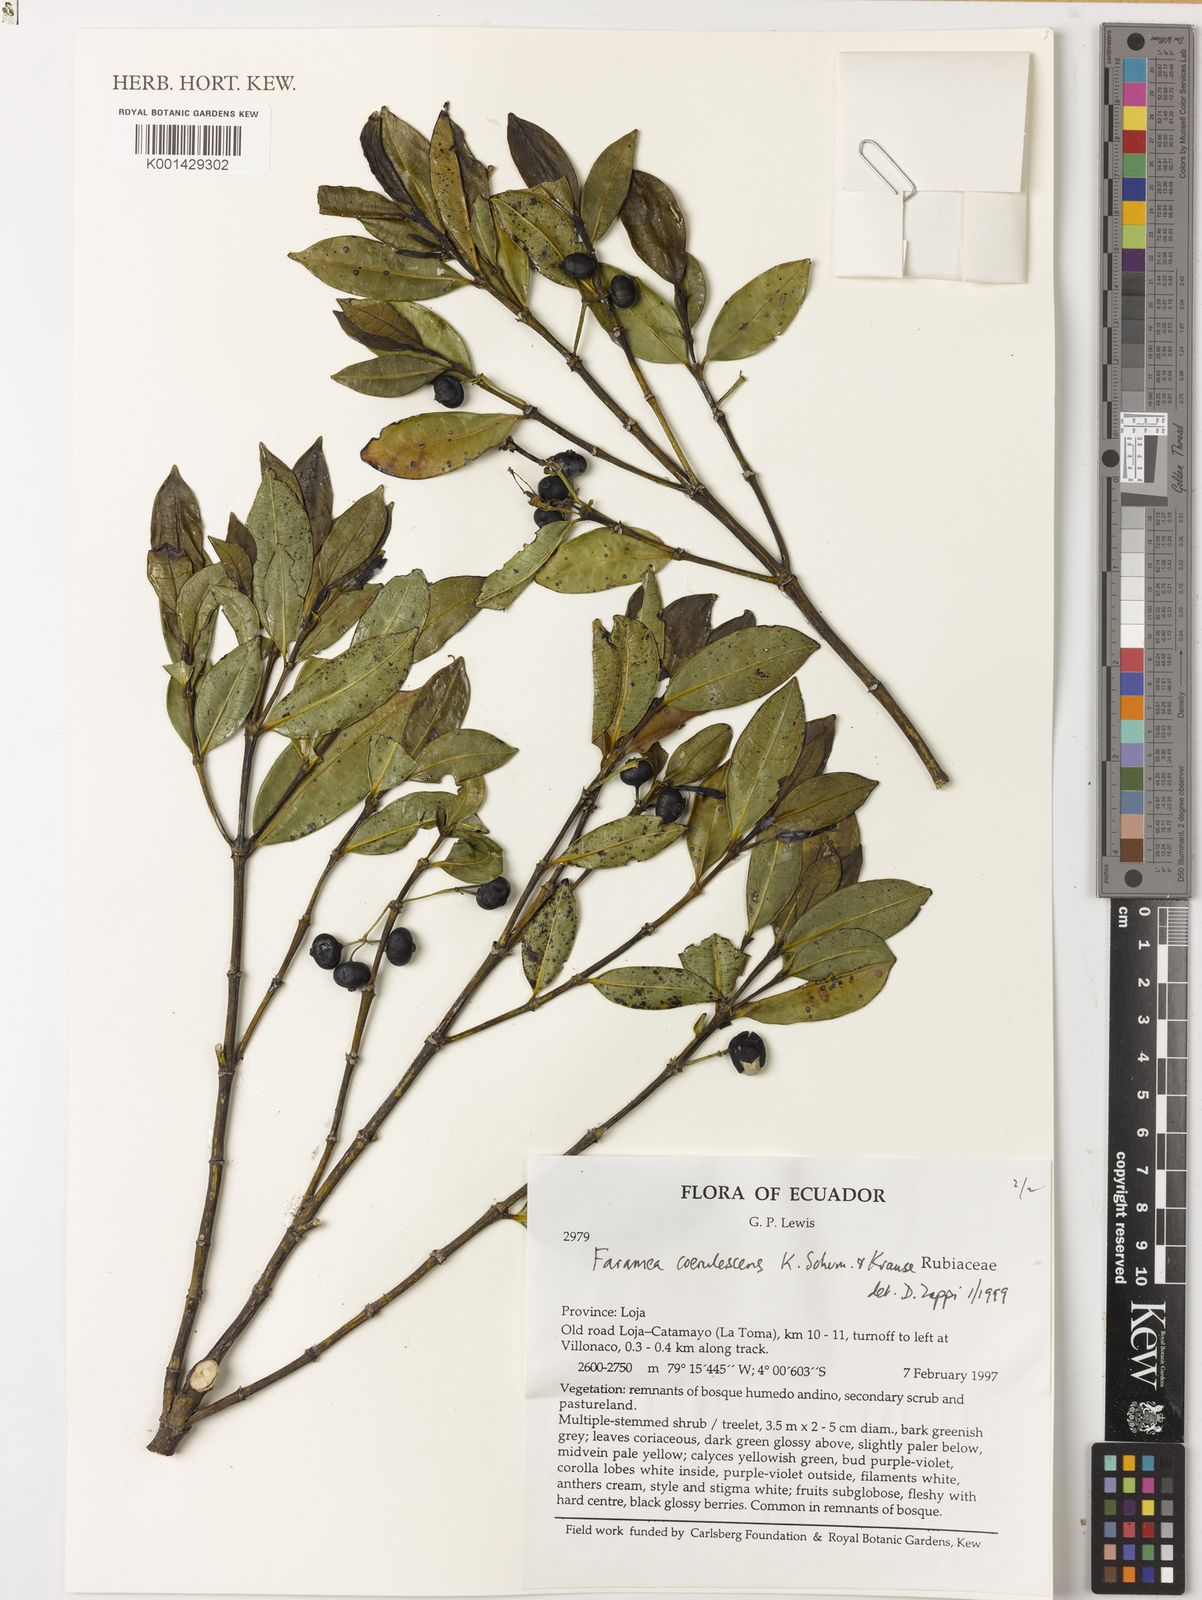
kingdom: Plantae
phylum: Tracheophyta
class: Magnoliopsida
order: Gentianales
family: Rubiaceae
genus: Faramea
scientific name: Faramea coerulescens
